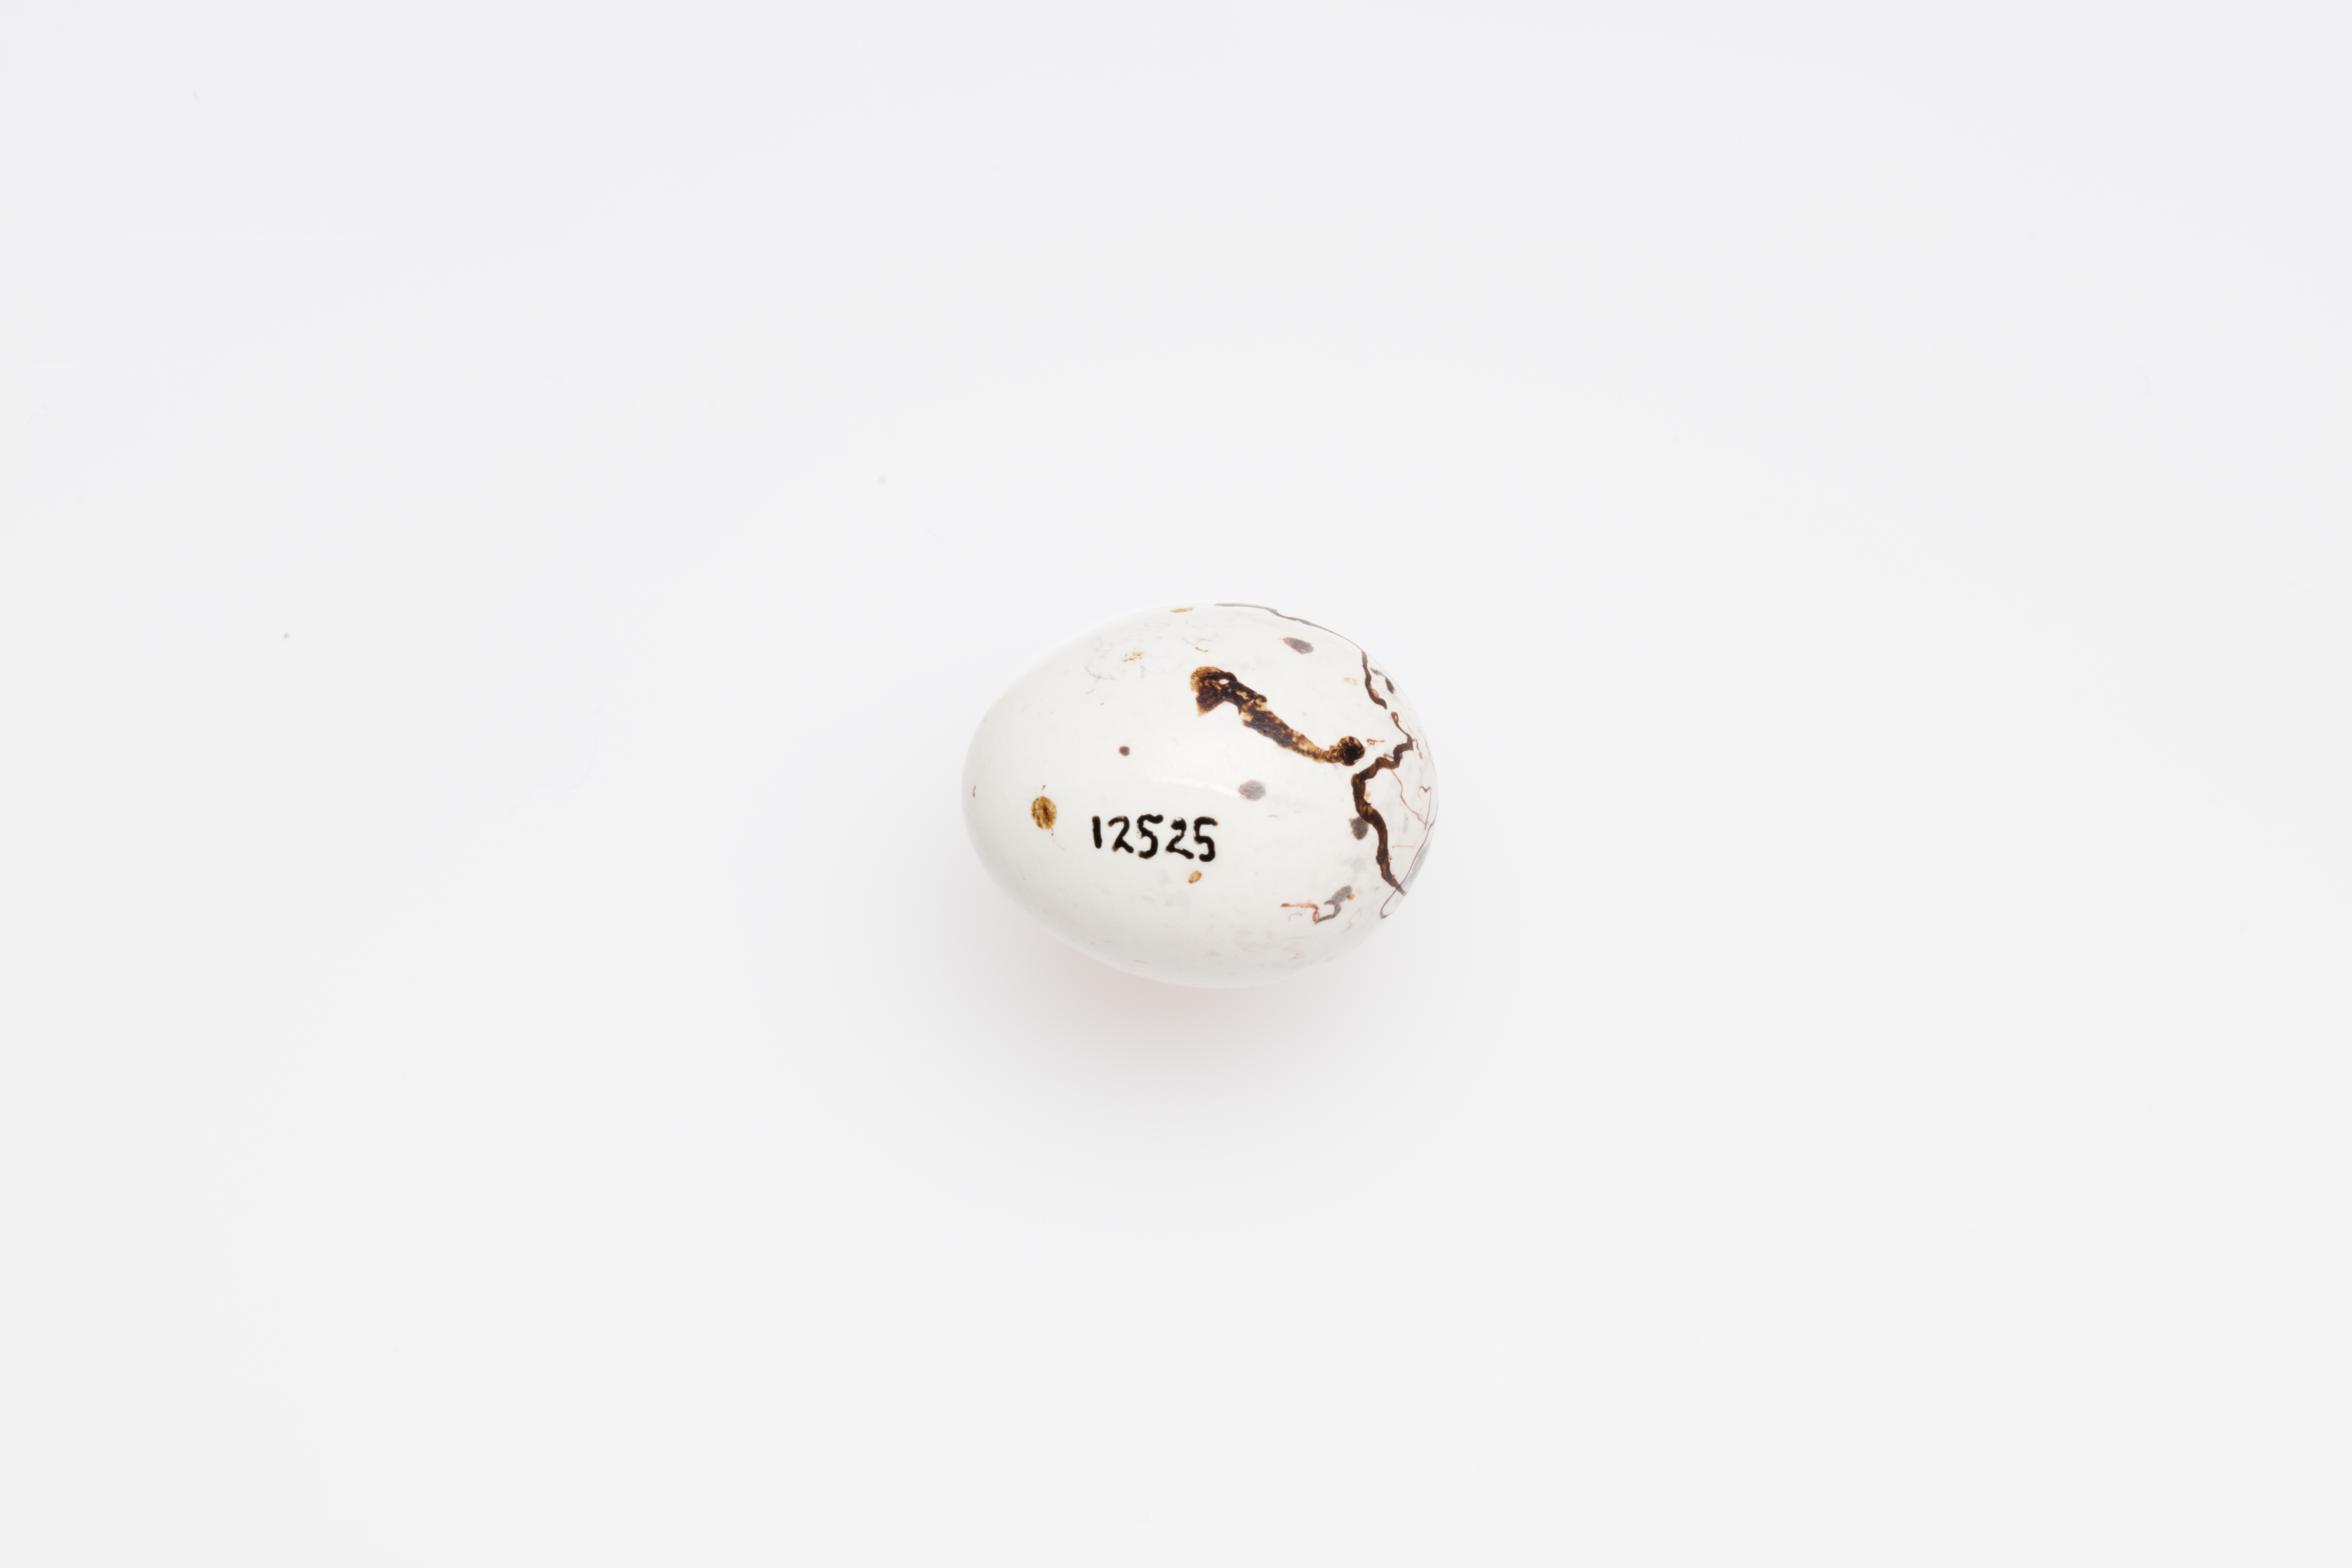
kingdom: Animalia
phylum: Chordata
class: Aves
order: Passeriformes
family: Passerellidae
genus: Chondestes
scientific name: Chondestes grammacus
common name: Lark sparrow
